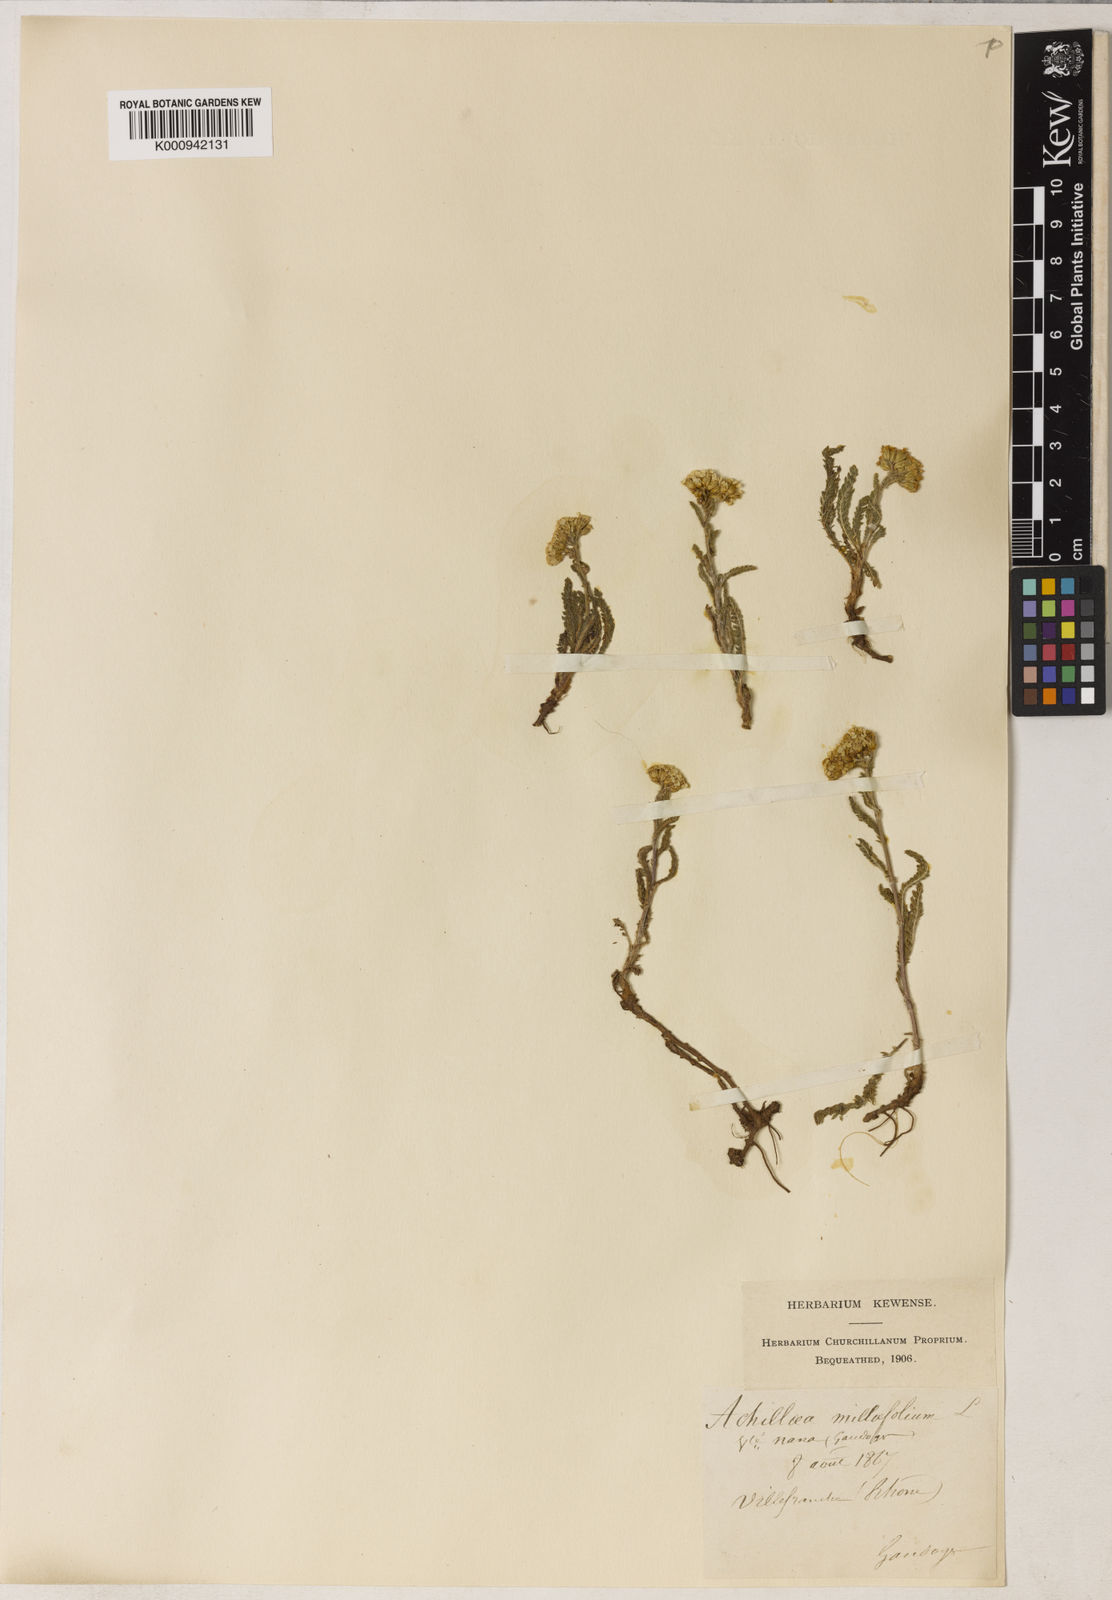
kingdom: Plantae
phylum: Tracheophyta
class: Magnoliopsida
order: Asterales
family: Asteraceae
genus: Achillea
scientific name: Achillea millefolium
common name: Yarrow
